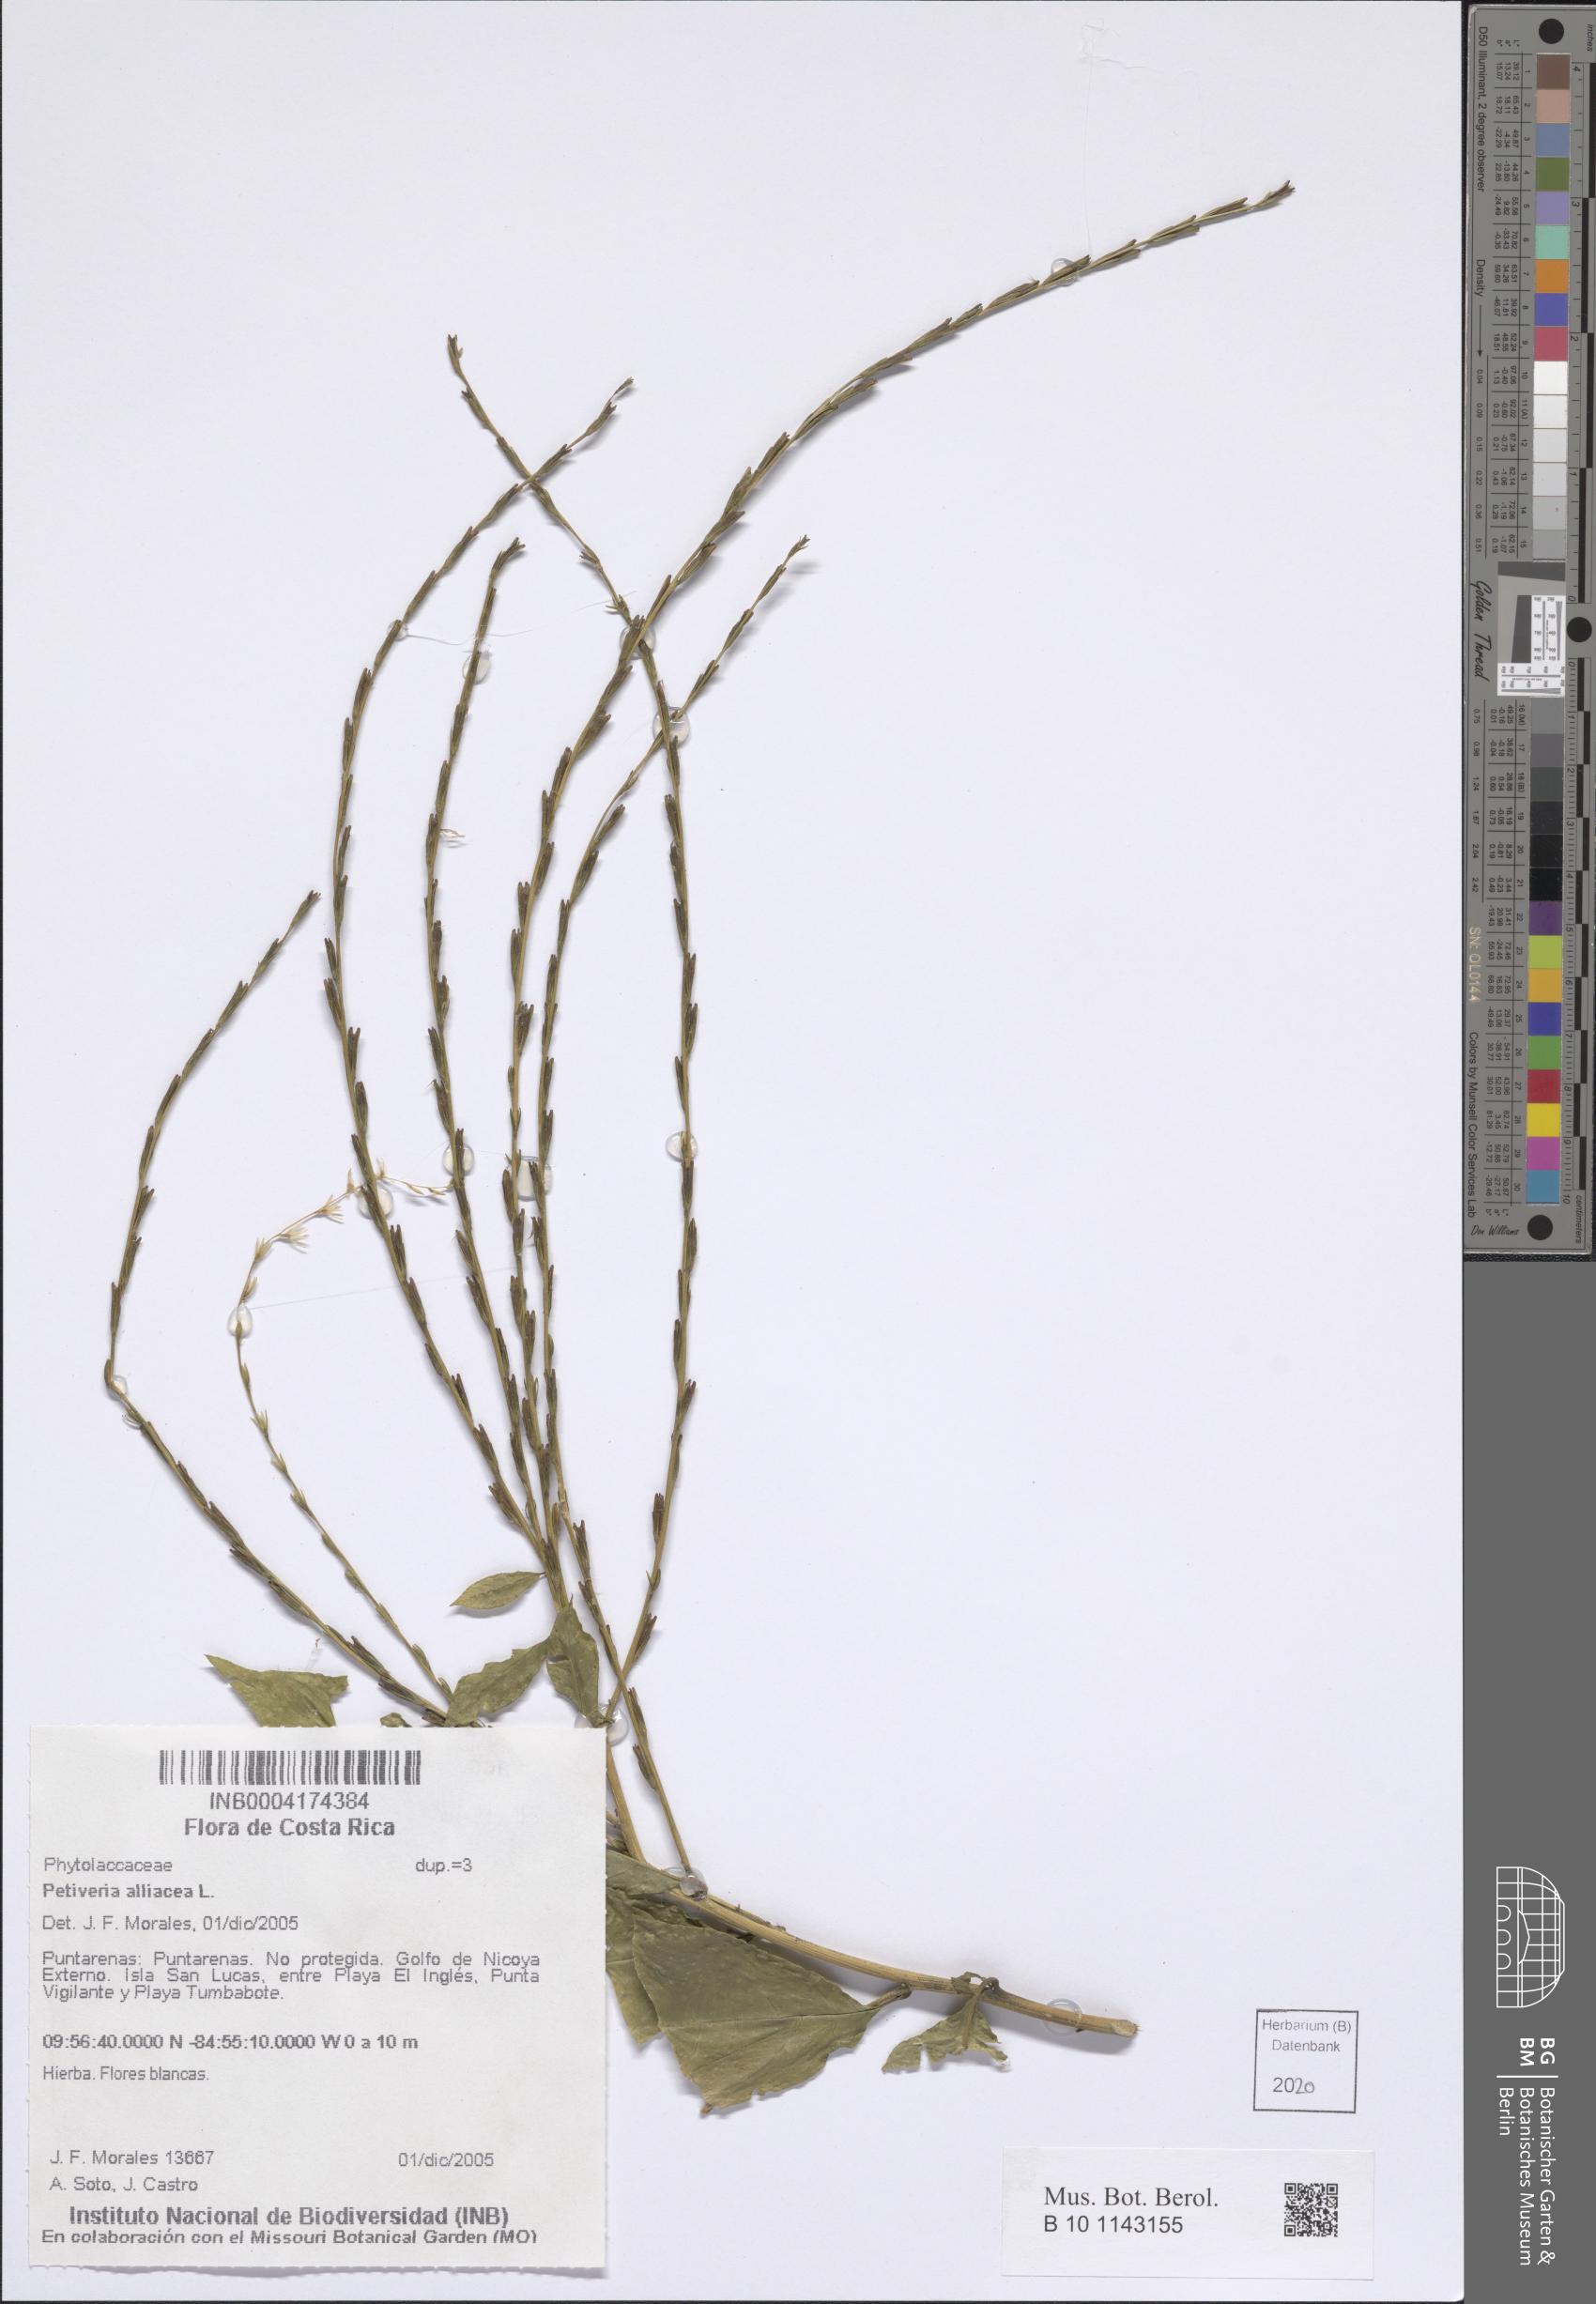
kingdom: Plantae
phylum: Tracheophyta
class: Magnoliopsida
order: Caryophyllales
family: Phytolaccaceae
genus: Petiveria
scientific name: Petiveria alliacea
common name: Garlicweed
